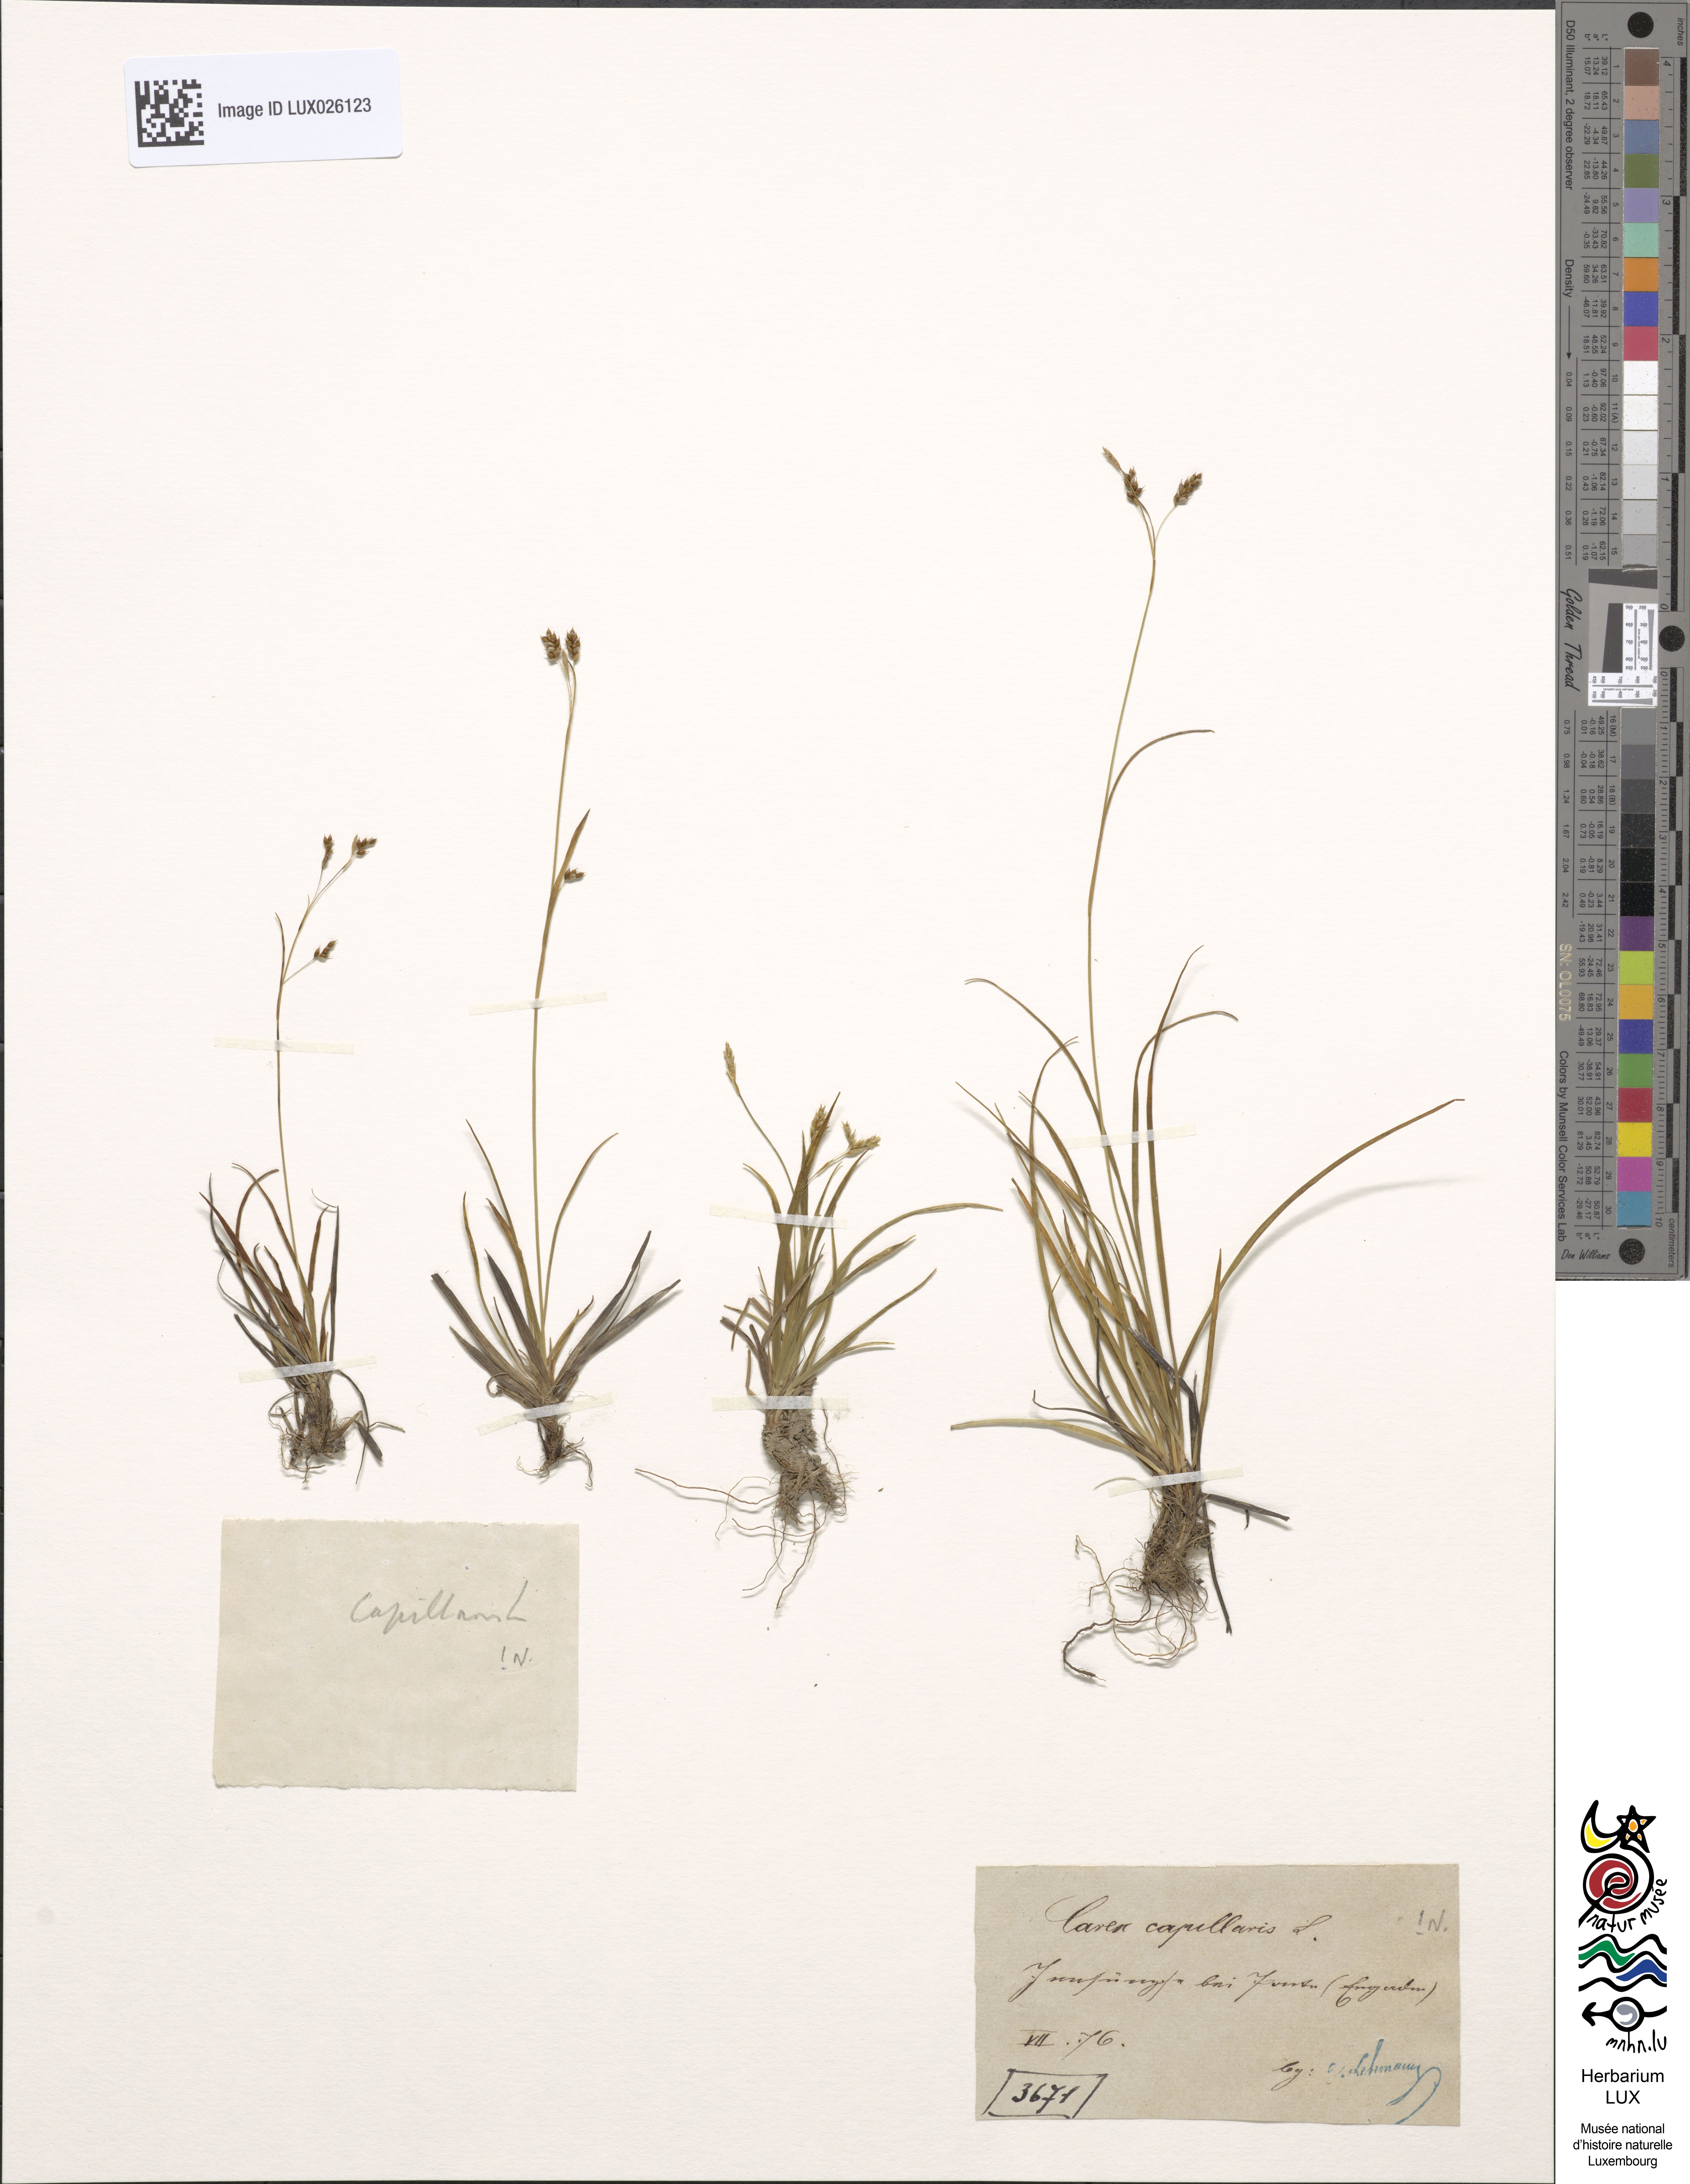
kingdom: Plantae
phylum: Tracheophyta
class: Liliopsida
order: Poales
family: Cyperaceae
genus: Carex
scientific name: Carex capillaris
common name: Hair sedge
